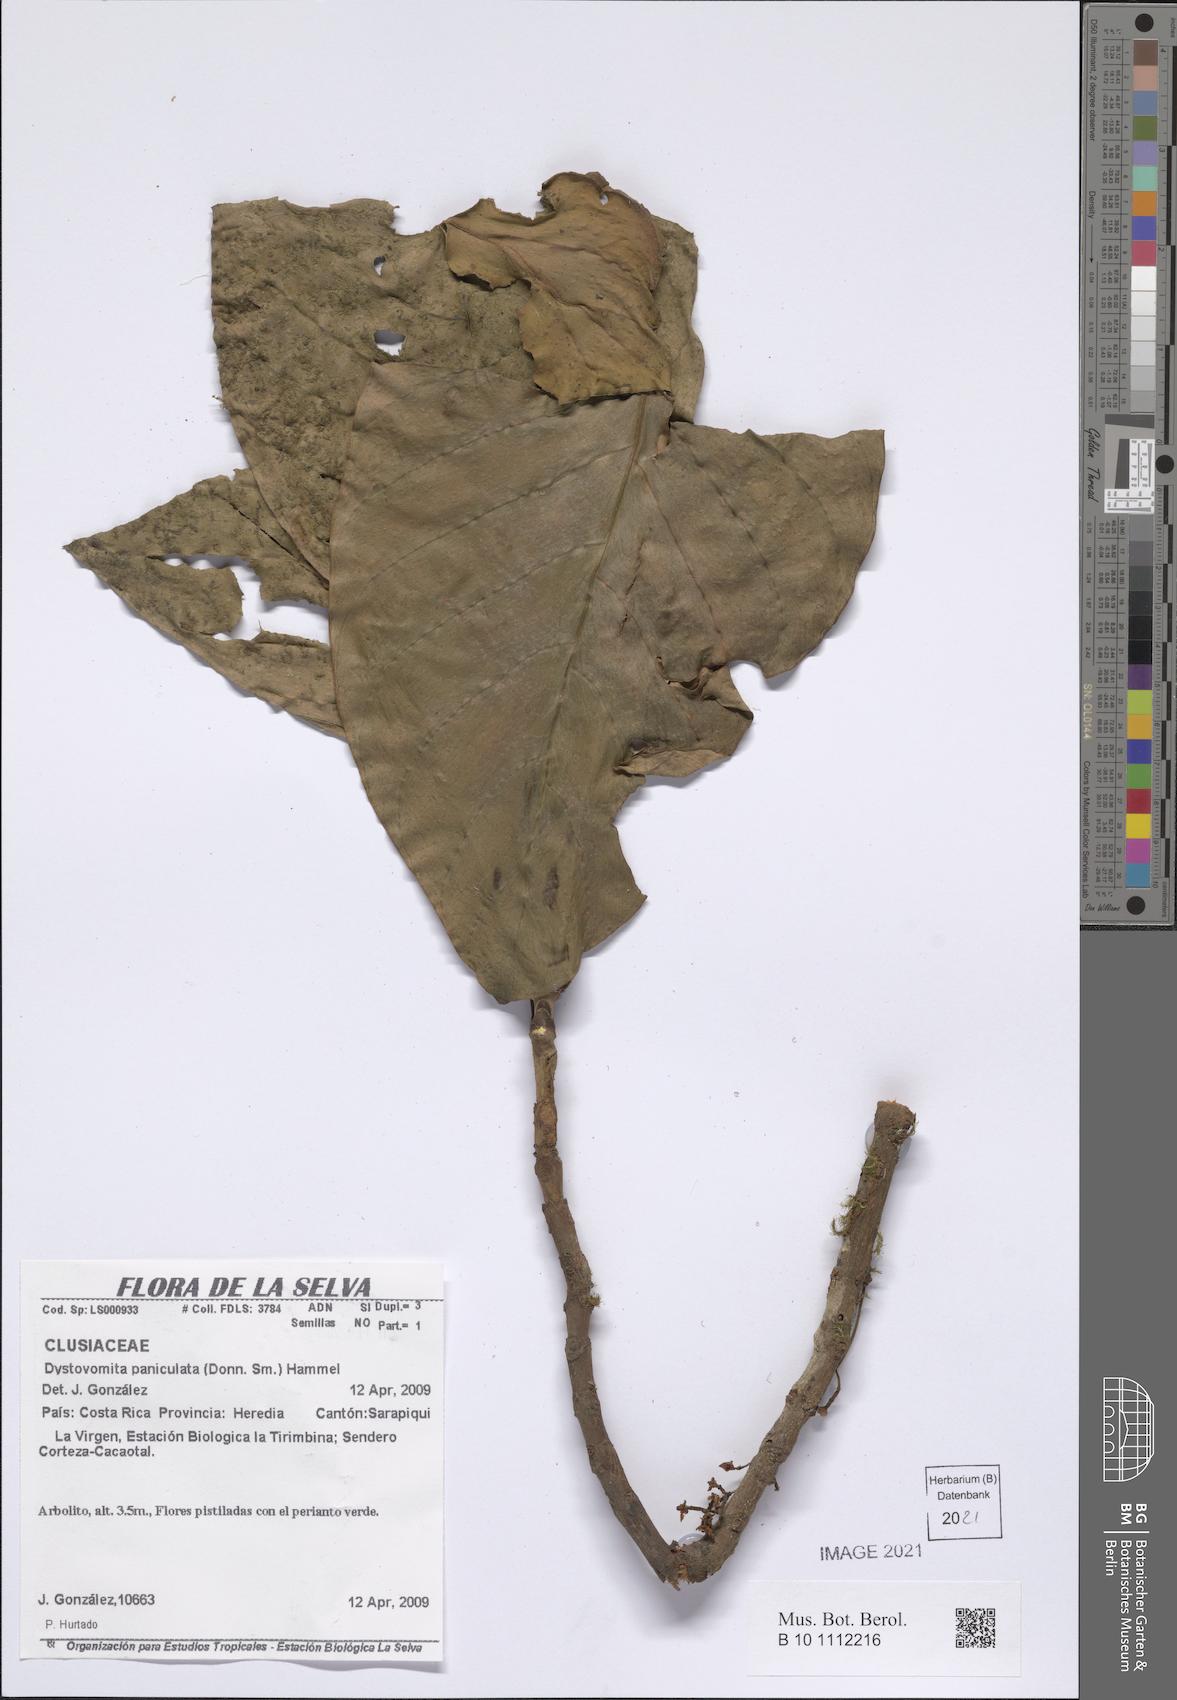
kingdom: Plantae
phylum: Tracheophyta
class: Magnoliopsida
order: Malpighiales
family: Clusiaceae
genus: Dystovomita
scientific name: Dystovomita paniculata
